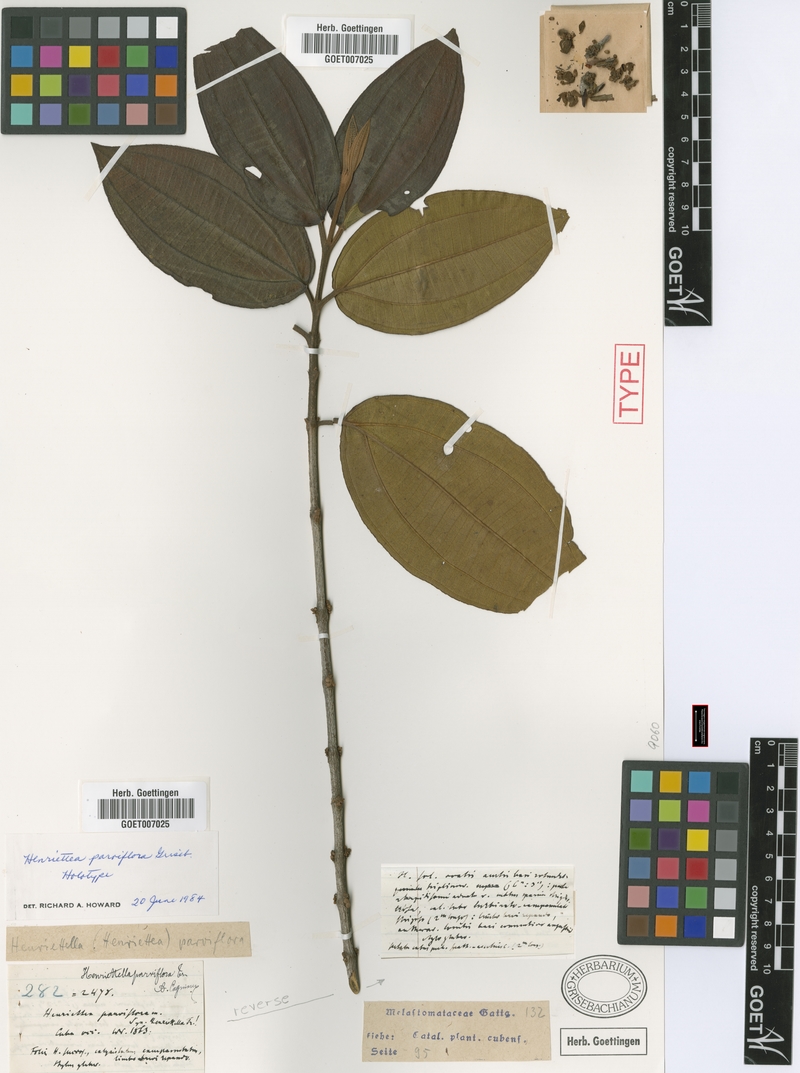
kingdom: Plantae
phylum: Tracheophyta
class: Magnoliopsida
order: Myrtales
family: Melastomataceae
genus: Henriettea
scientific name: Henriettea patrisiana
